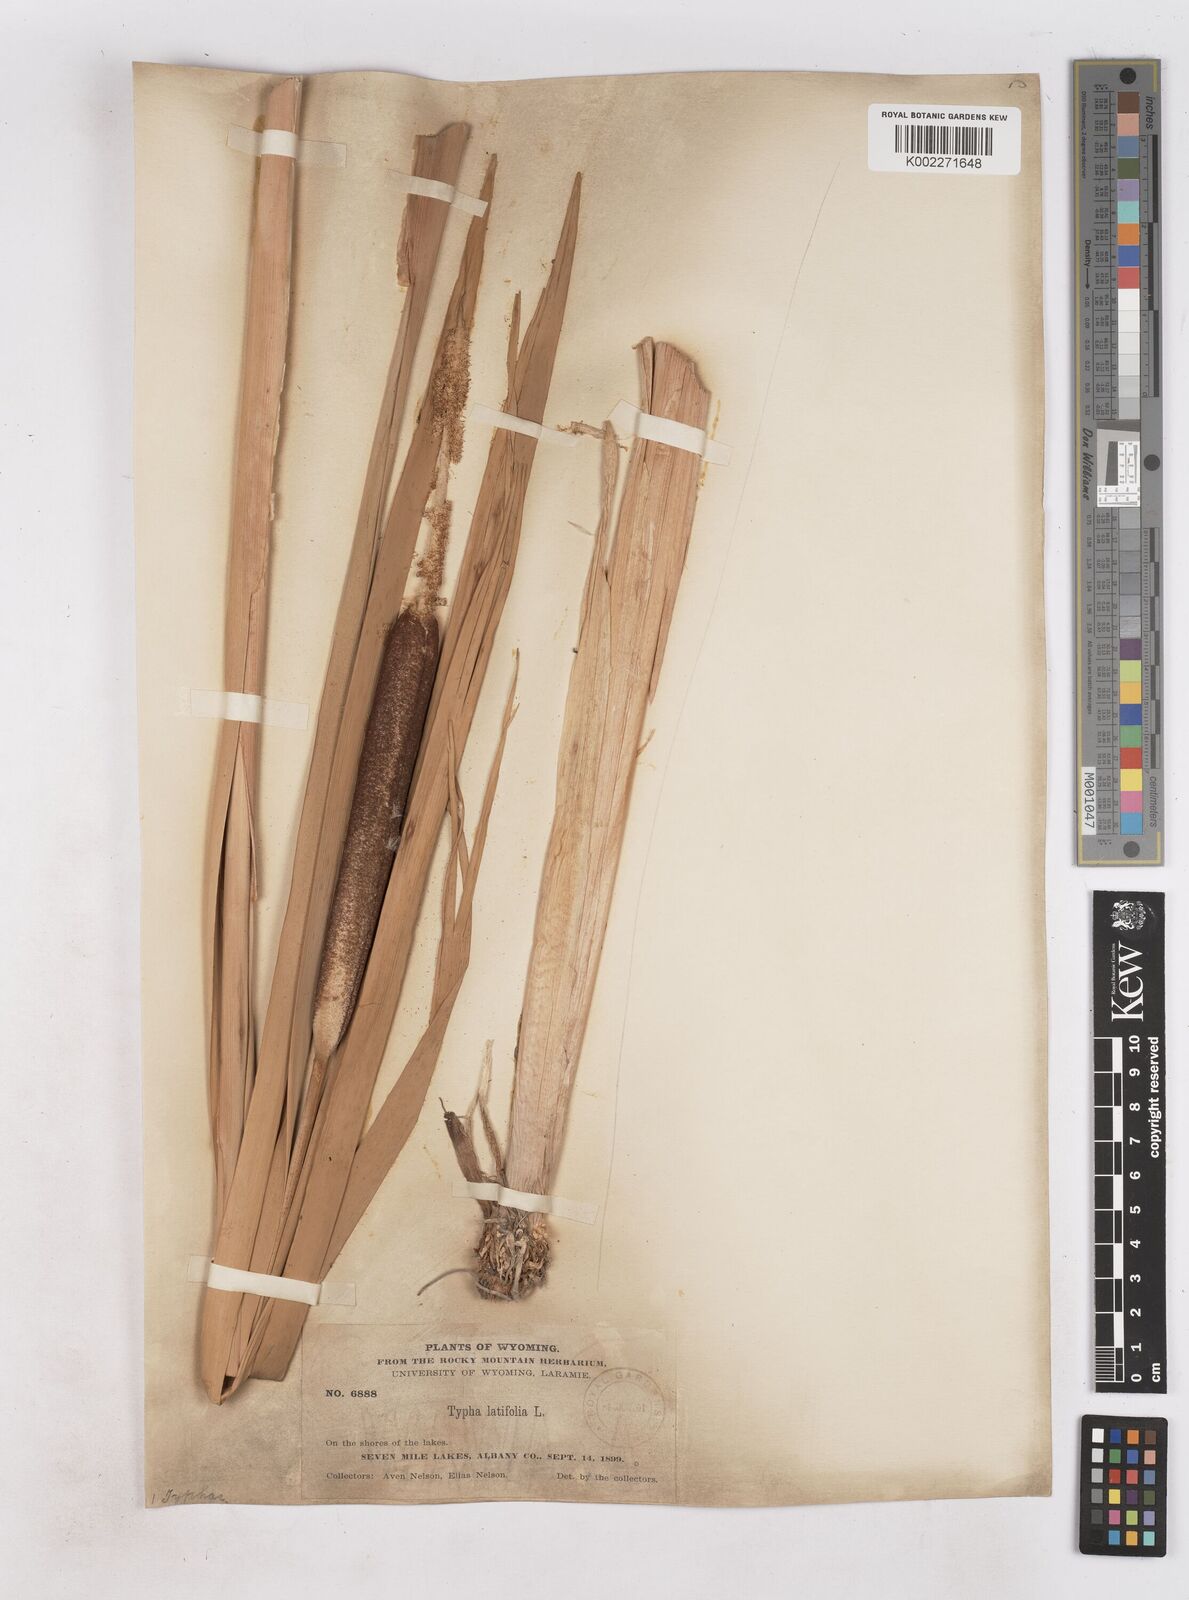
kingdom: Plantae
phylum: Tracheophyta
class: Liliopsida
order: Poales
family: Typhaceae
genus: Typha
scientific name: Typha latifolia
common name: Broadleaf cattail
